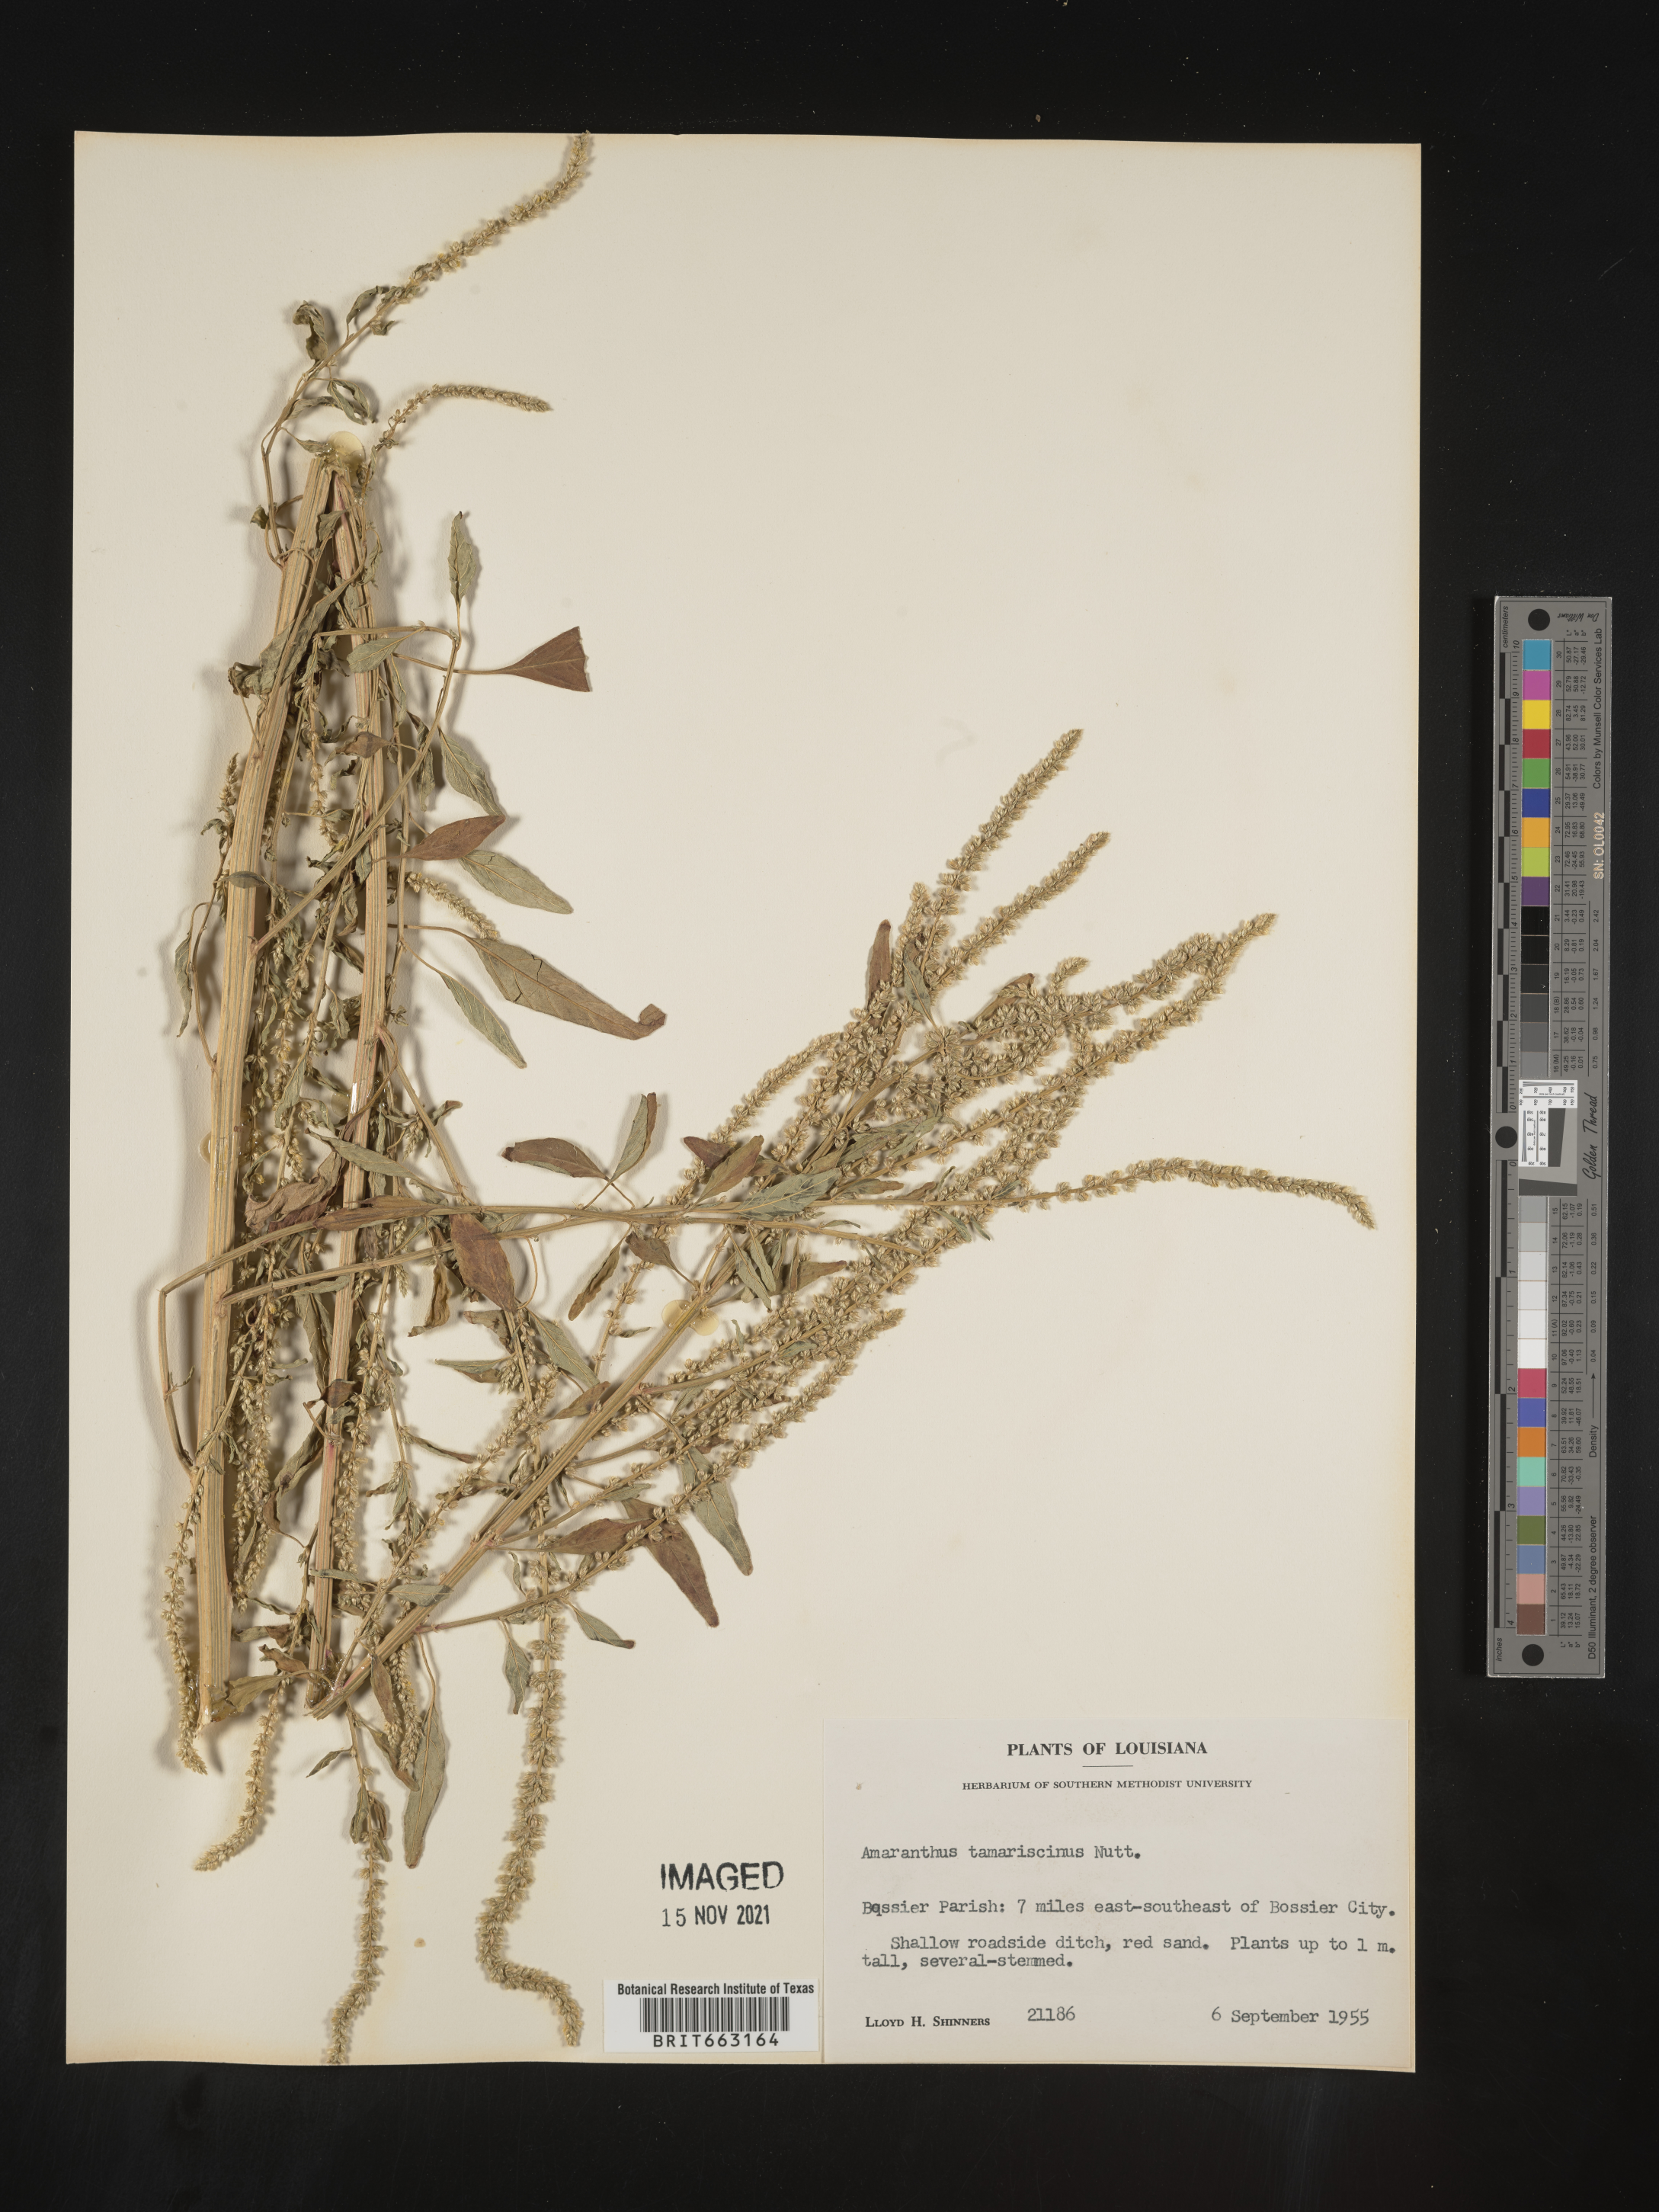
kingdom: Plantae
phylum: Tracheophyta
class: Magnoliopsida
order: Caryophyllales
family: Amaranthaceae
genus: Amaranthus
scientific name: Amaranthus tamariscinus
